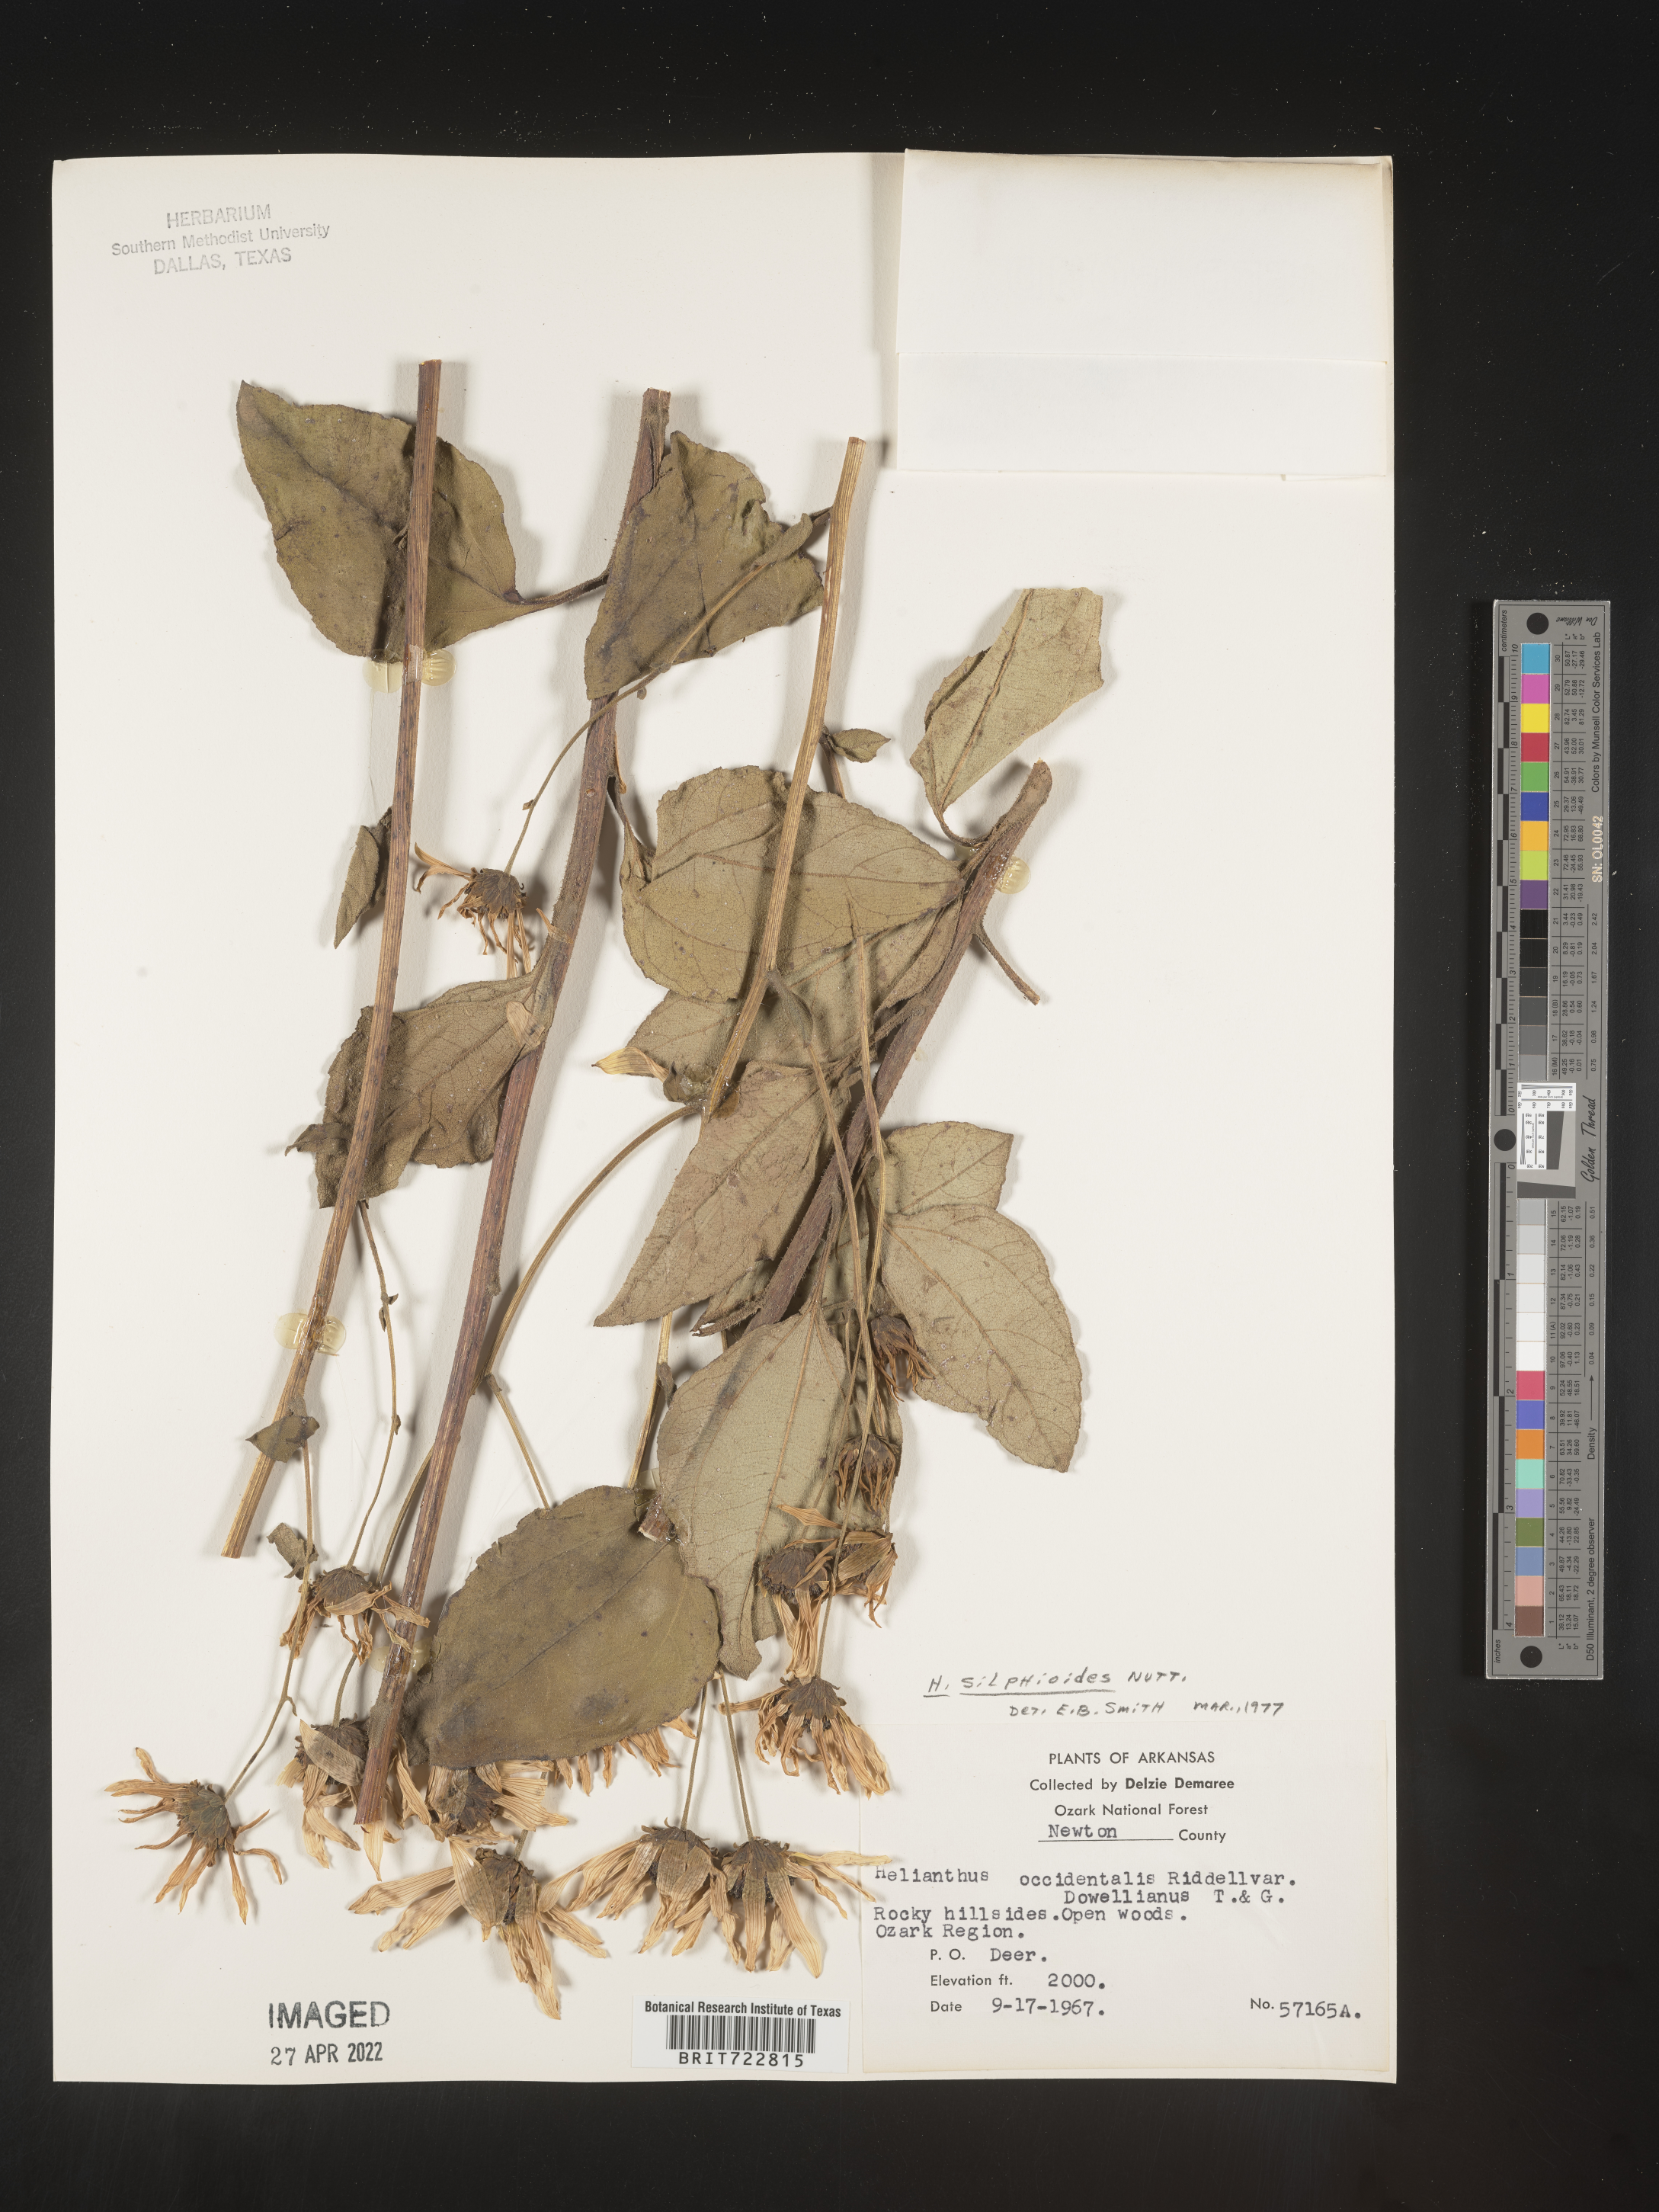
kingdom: Plantae
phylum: Tracheophyta
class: Magnoliopsida
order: Asterales
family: Asteraceae
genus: Helianthus
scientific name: Helianthus silphioides
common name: Odorous sunflower
